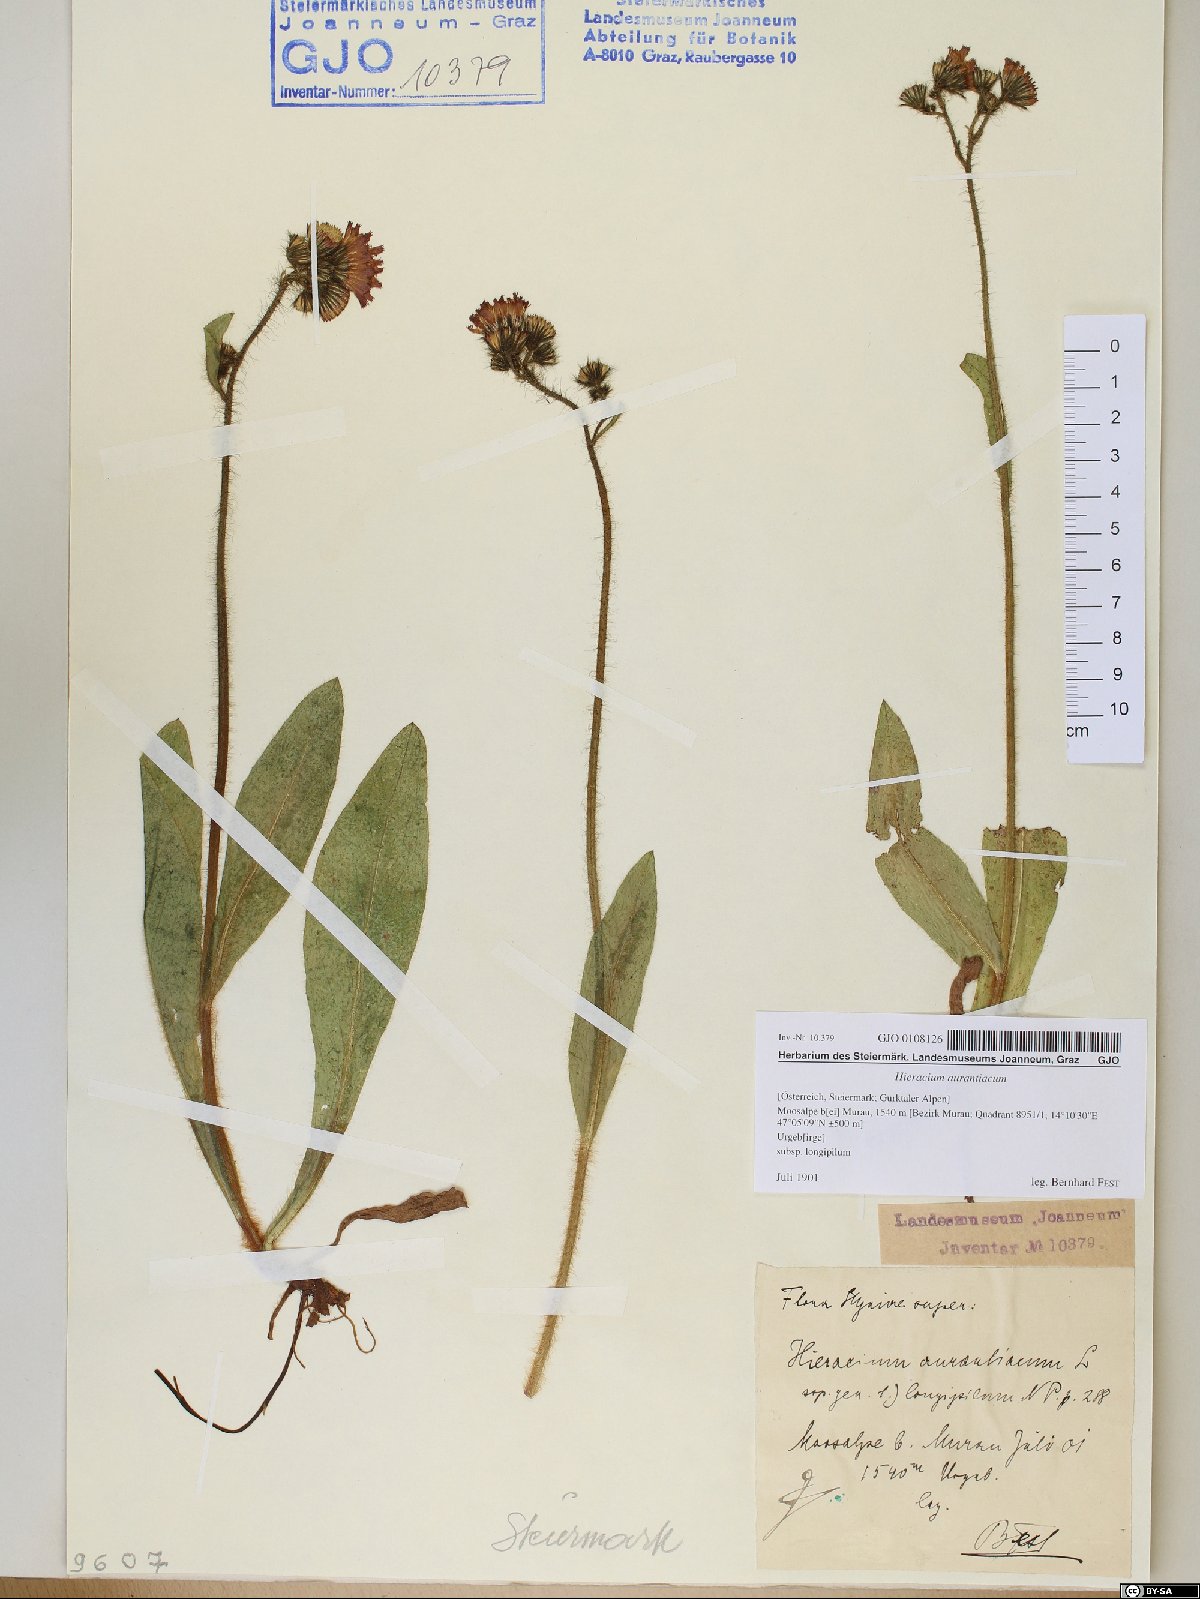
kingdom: Plantae
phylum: Tracheophyta
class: Magnoliopsida
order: Asterales
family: Asteraceae
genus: Pilosella
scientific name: Pilosella aurantiaca
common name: Fox-and-cubs
